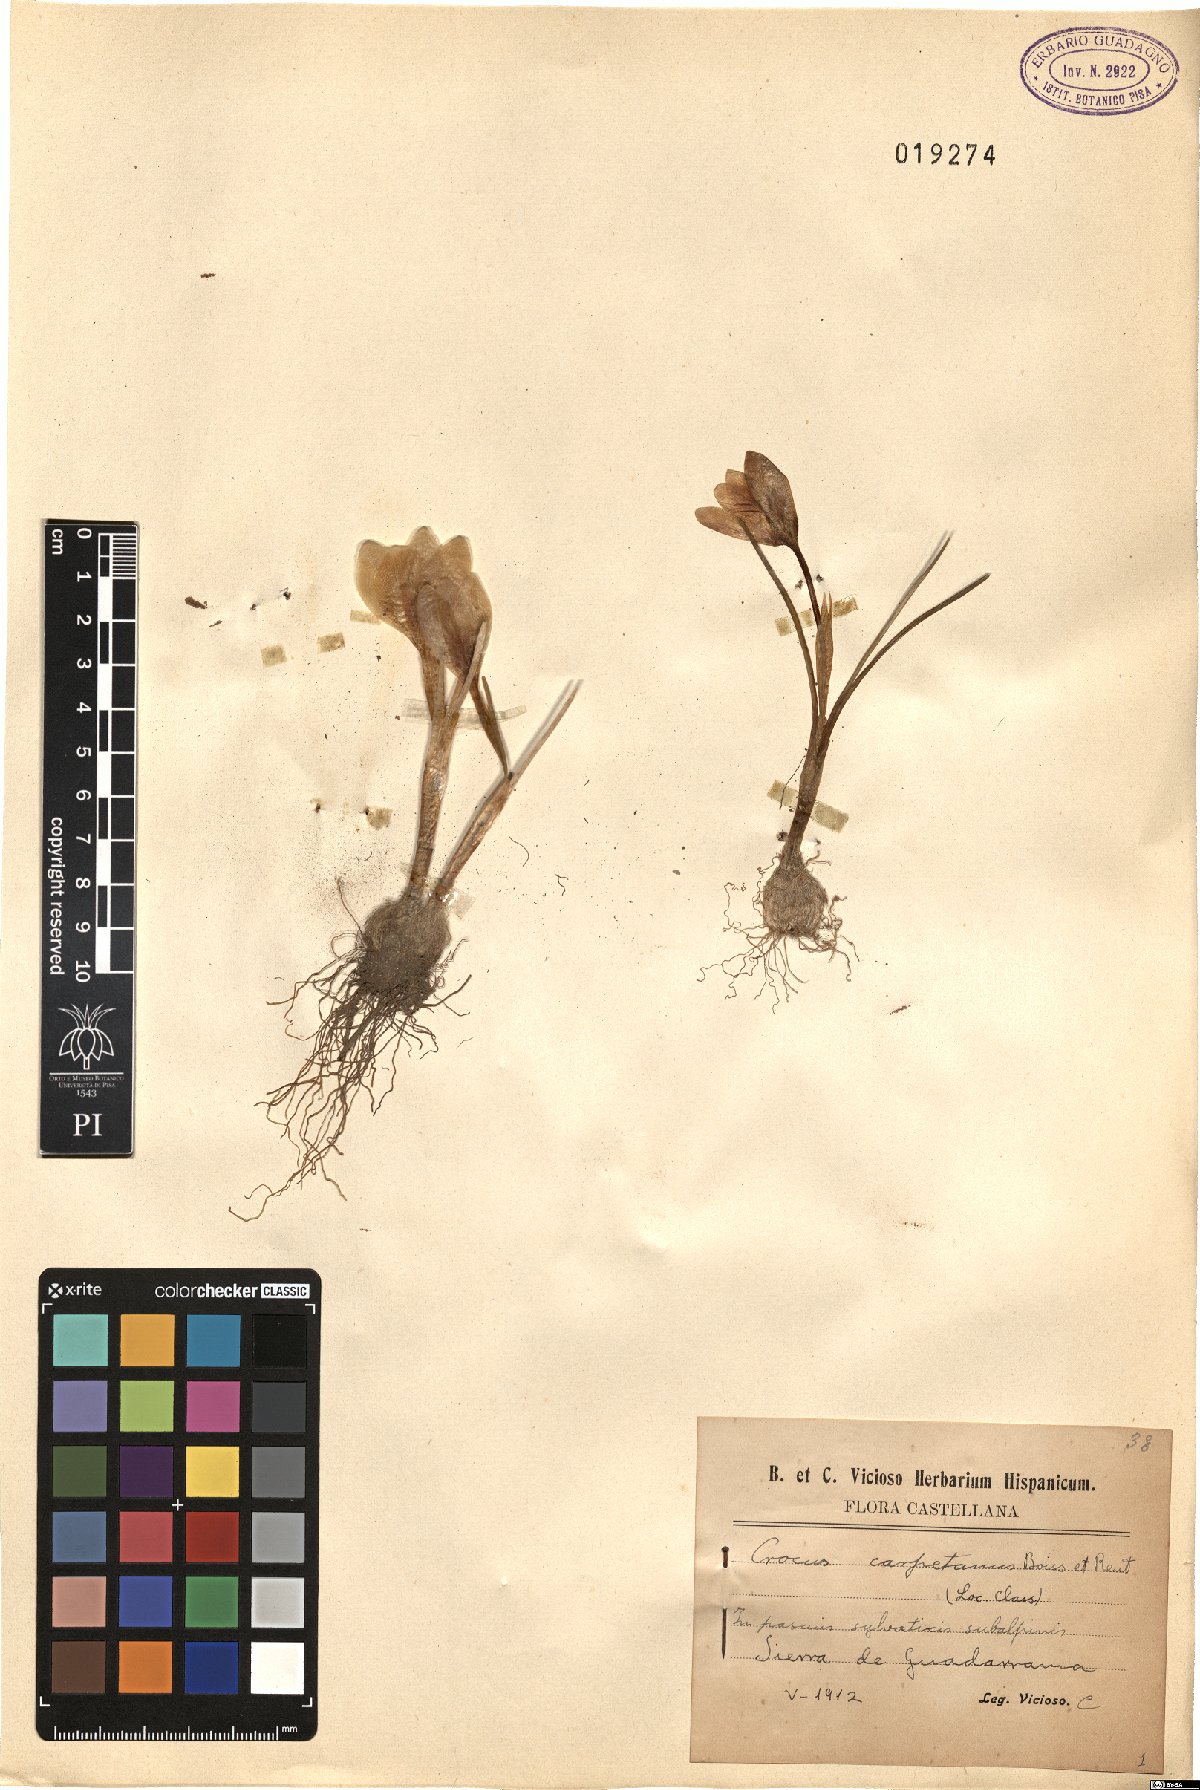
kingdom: Plantae
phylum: Tracheophyta
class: Liliopsida
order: Asparagales
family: Iridaceae
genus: Crocus
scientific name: Crocus carpetanus
